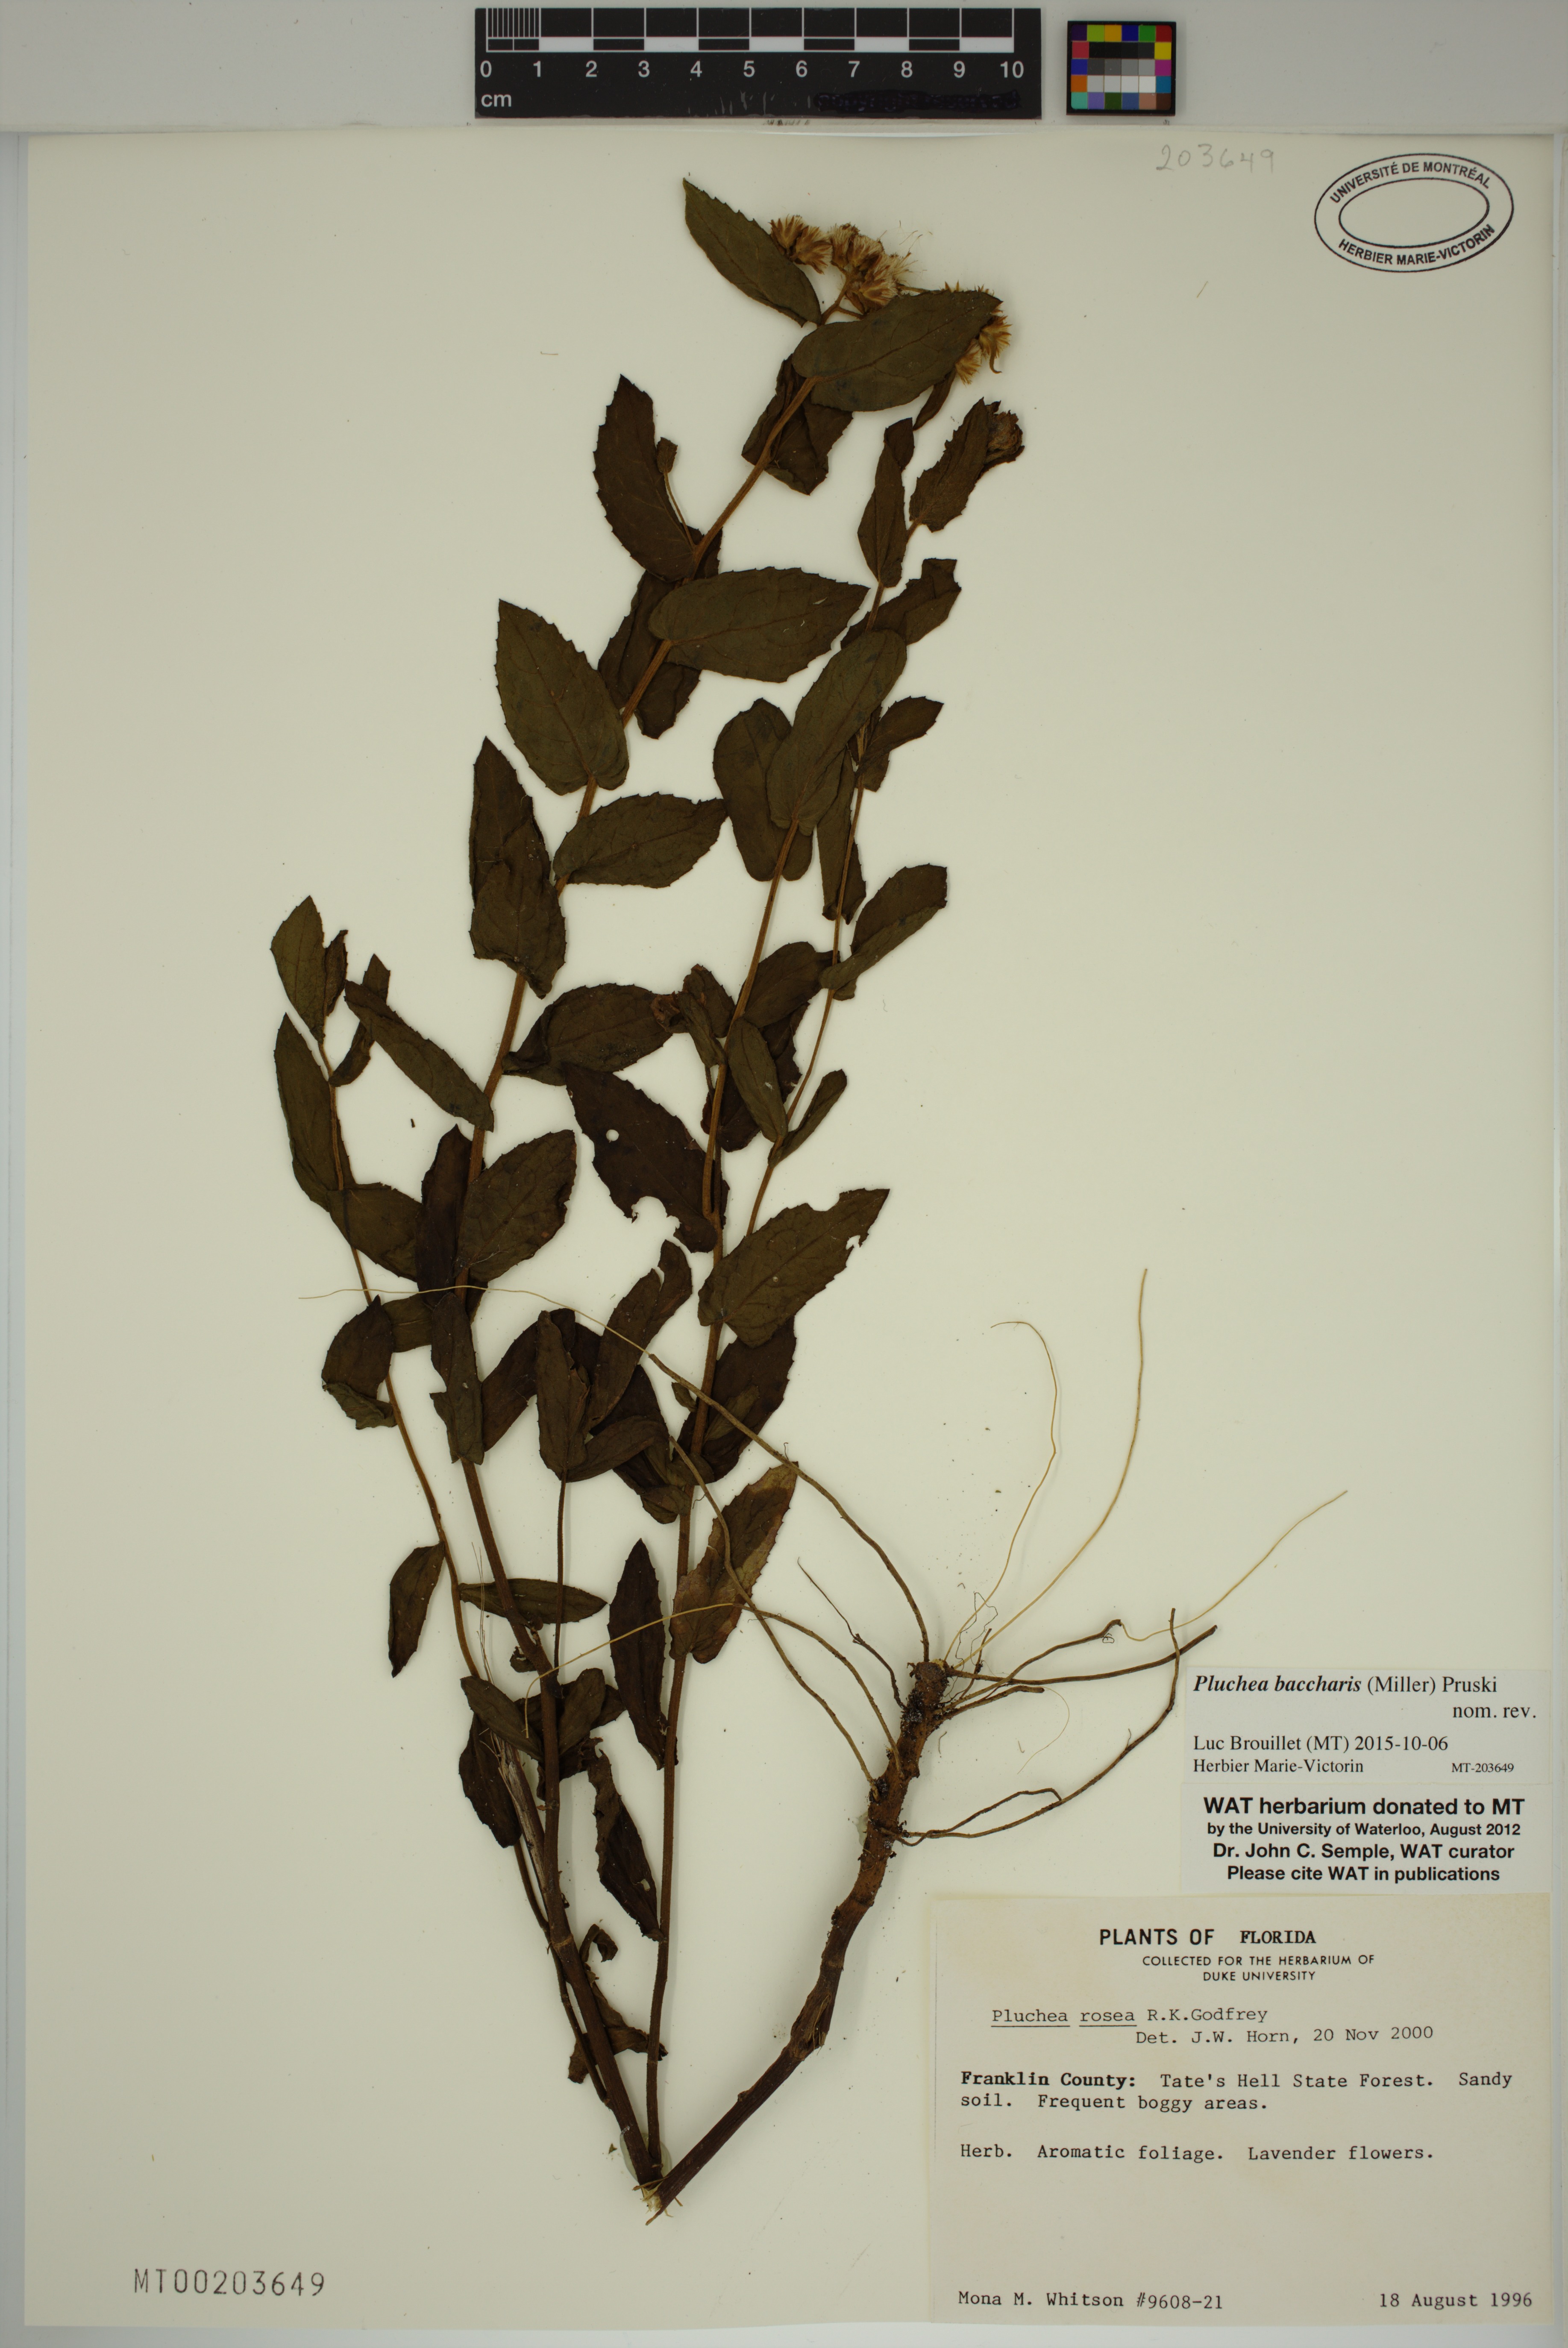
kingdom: Plantae
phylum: Tracheophyta
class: Magnoliopsida
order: Asterales
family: Asteraceae
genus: Pluchea
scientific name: Pluchea baccharis
